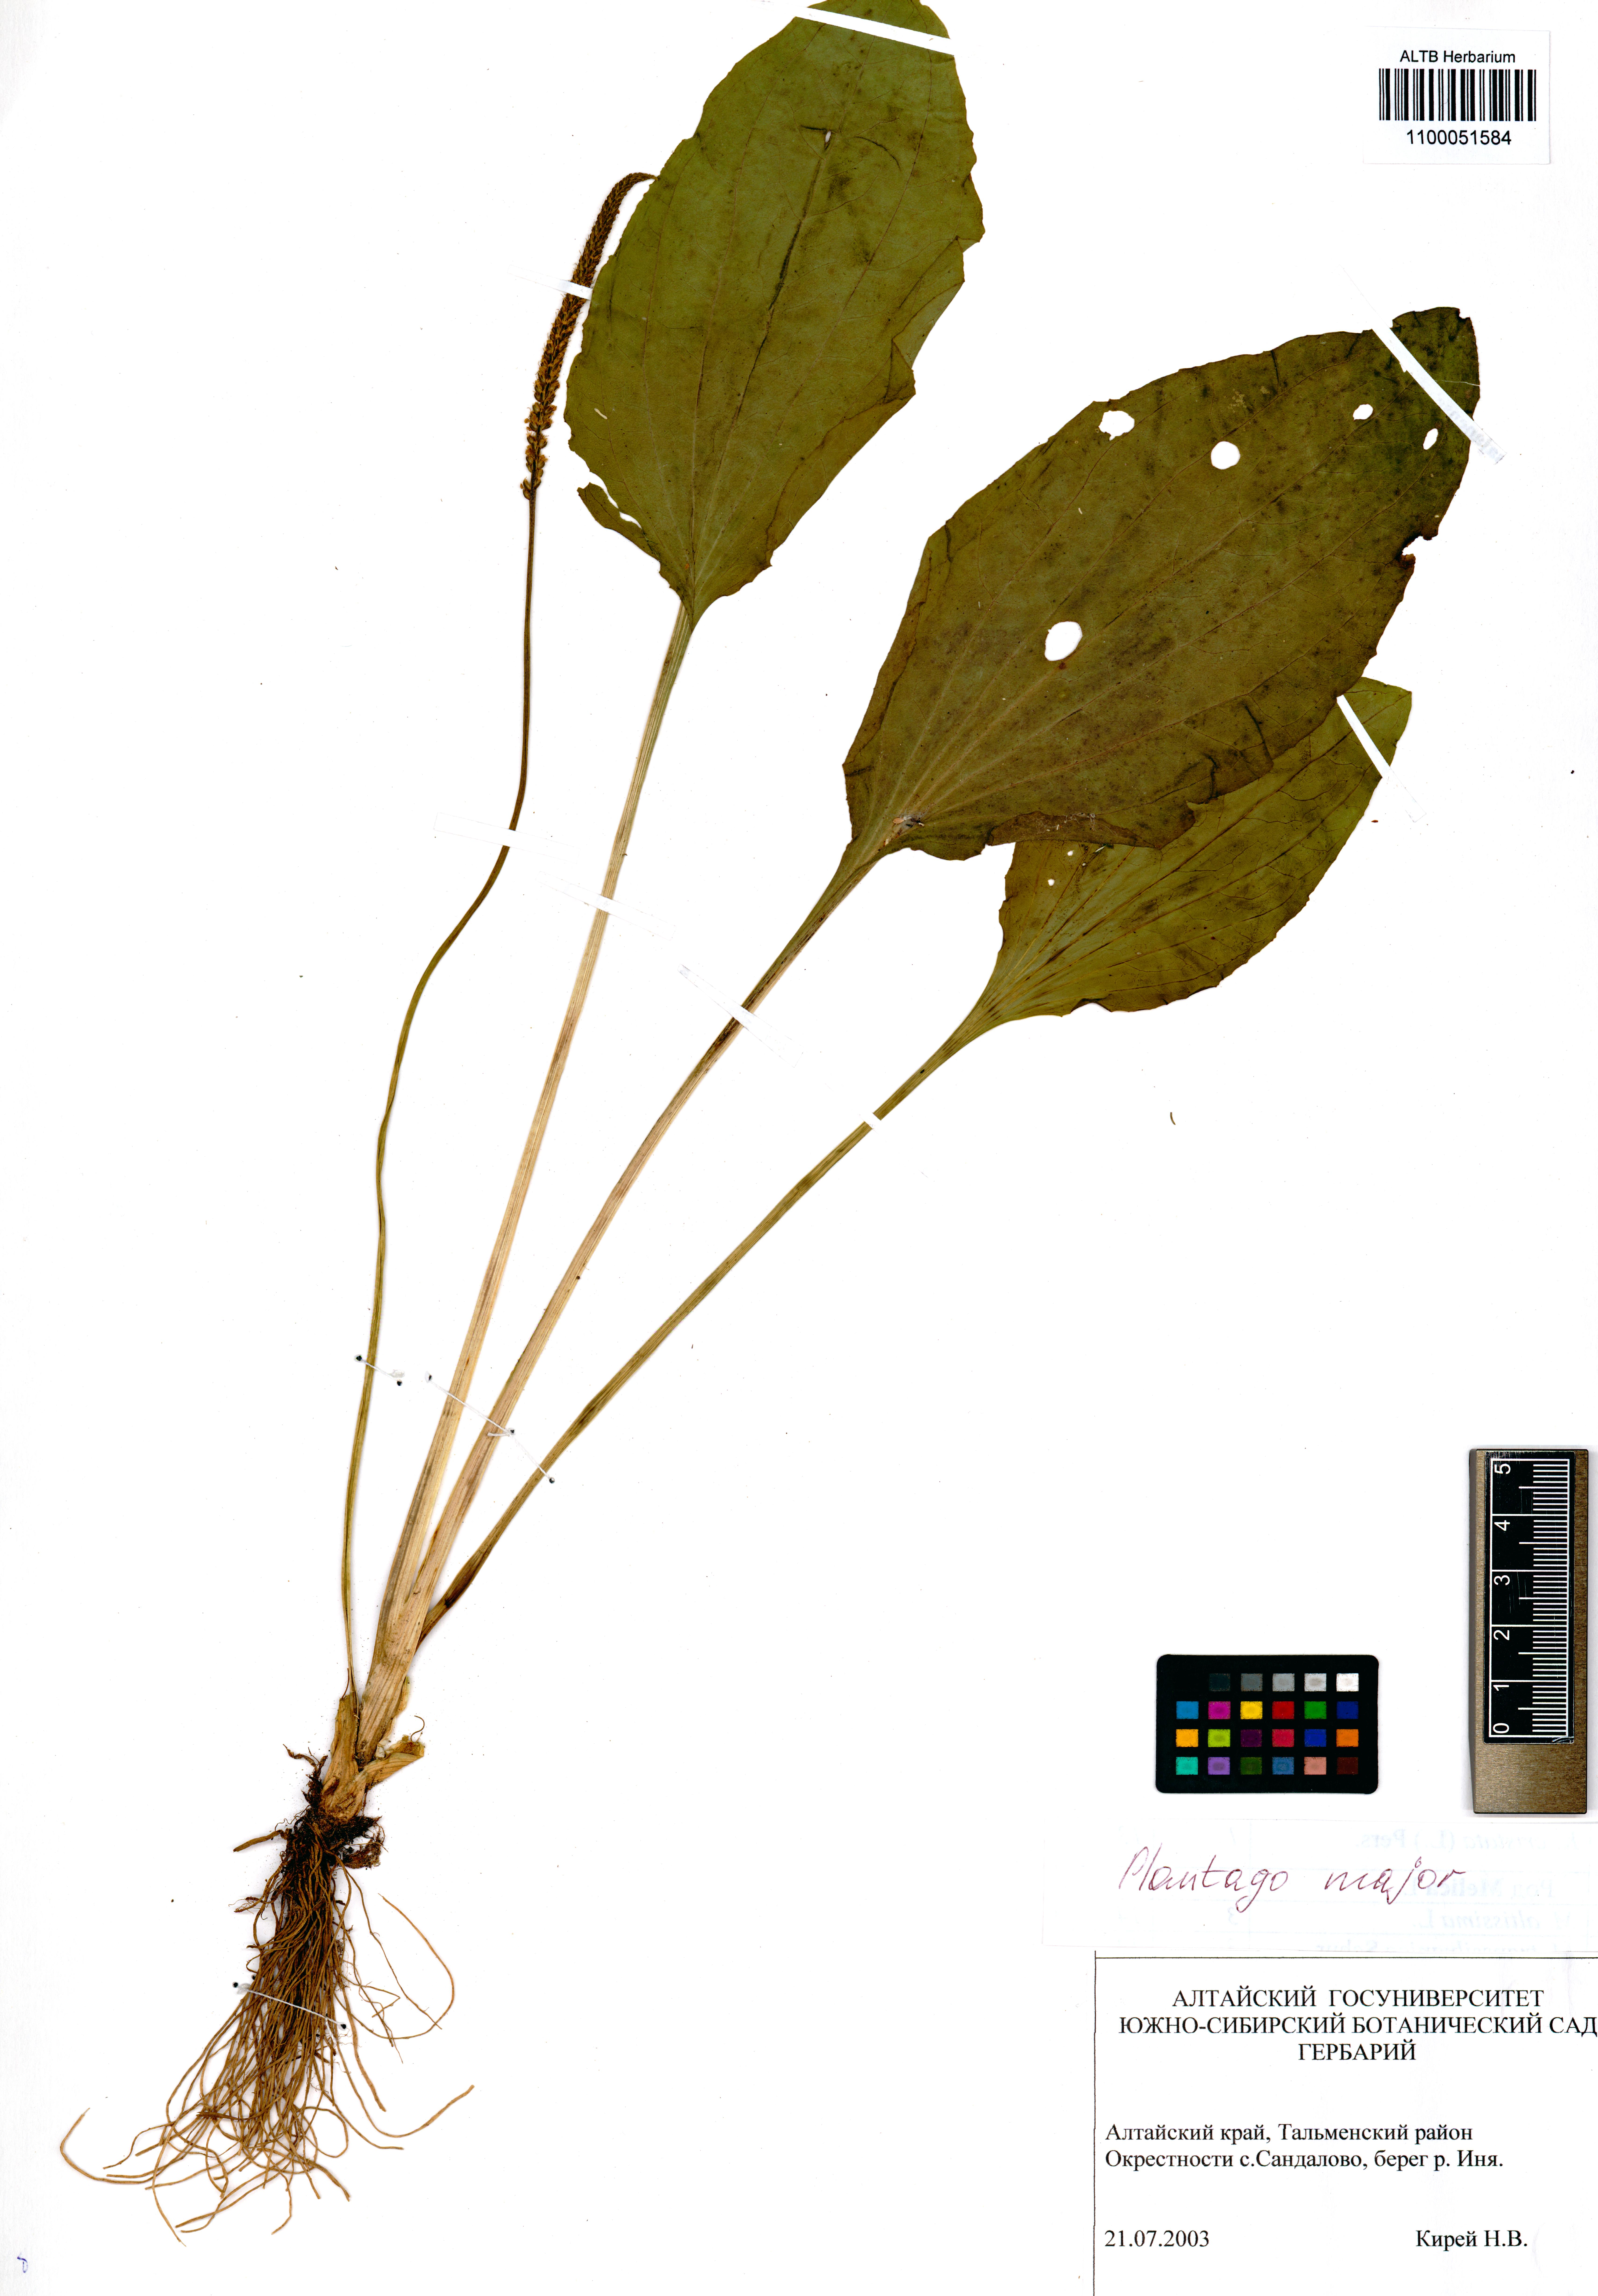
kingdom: Plantae
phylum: Tracheophyta
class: Magnoliopsida
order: Lamiales
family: Plantaginaceae
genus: Plantago
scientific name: Plantago major
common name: Common plantain
